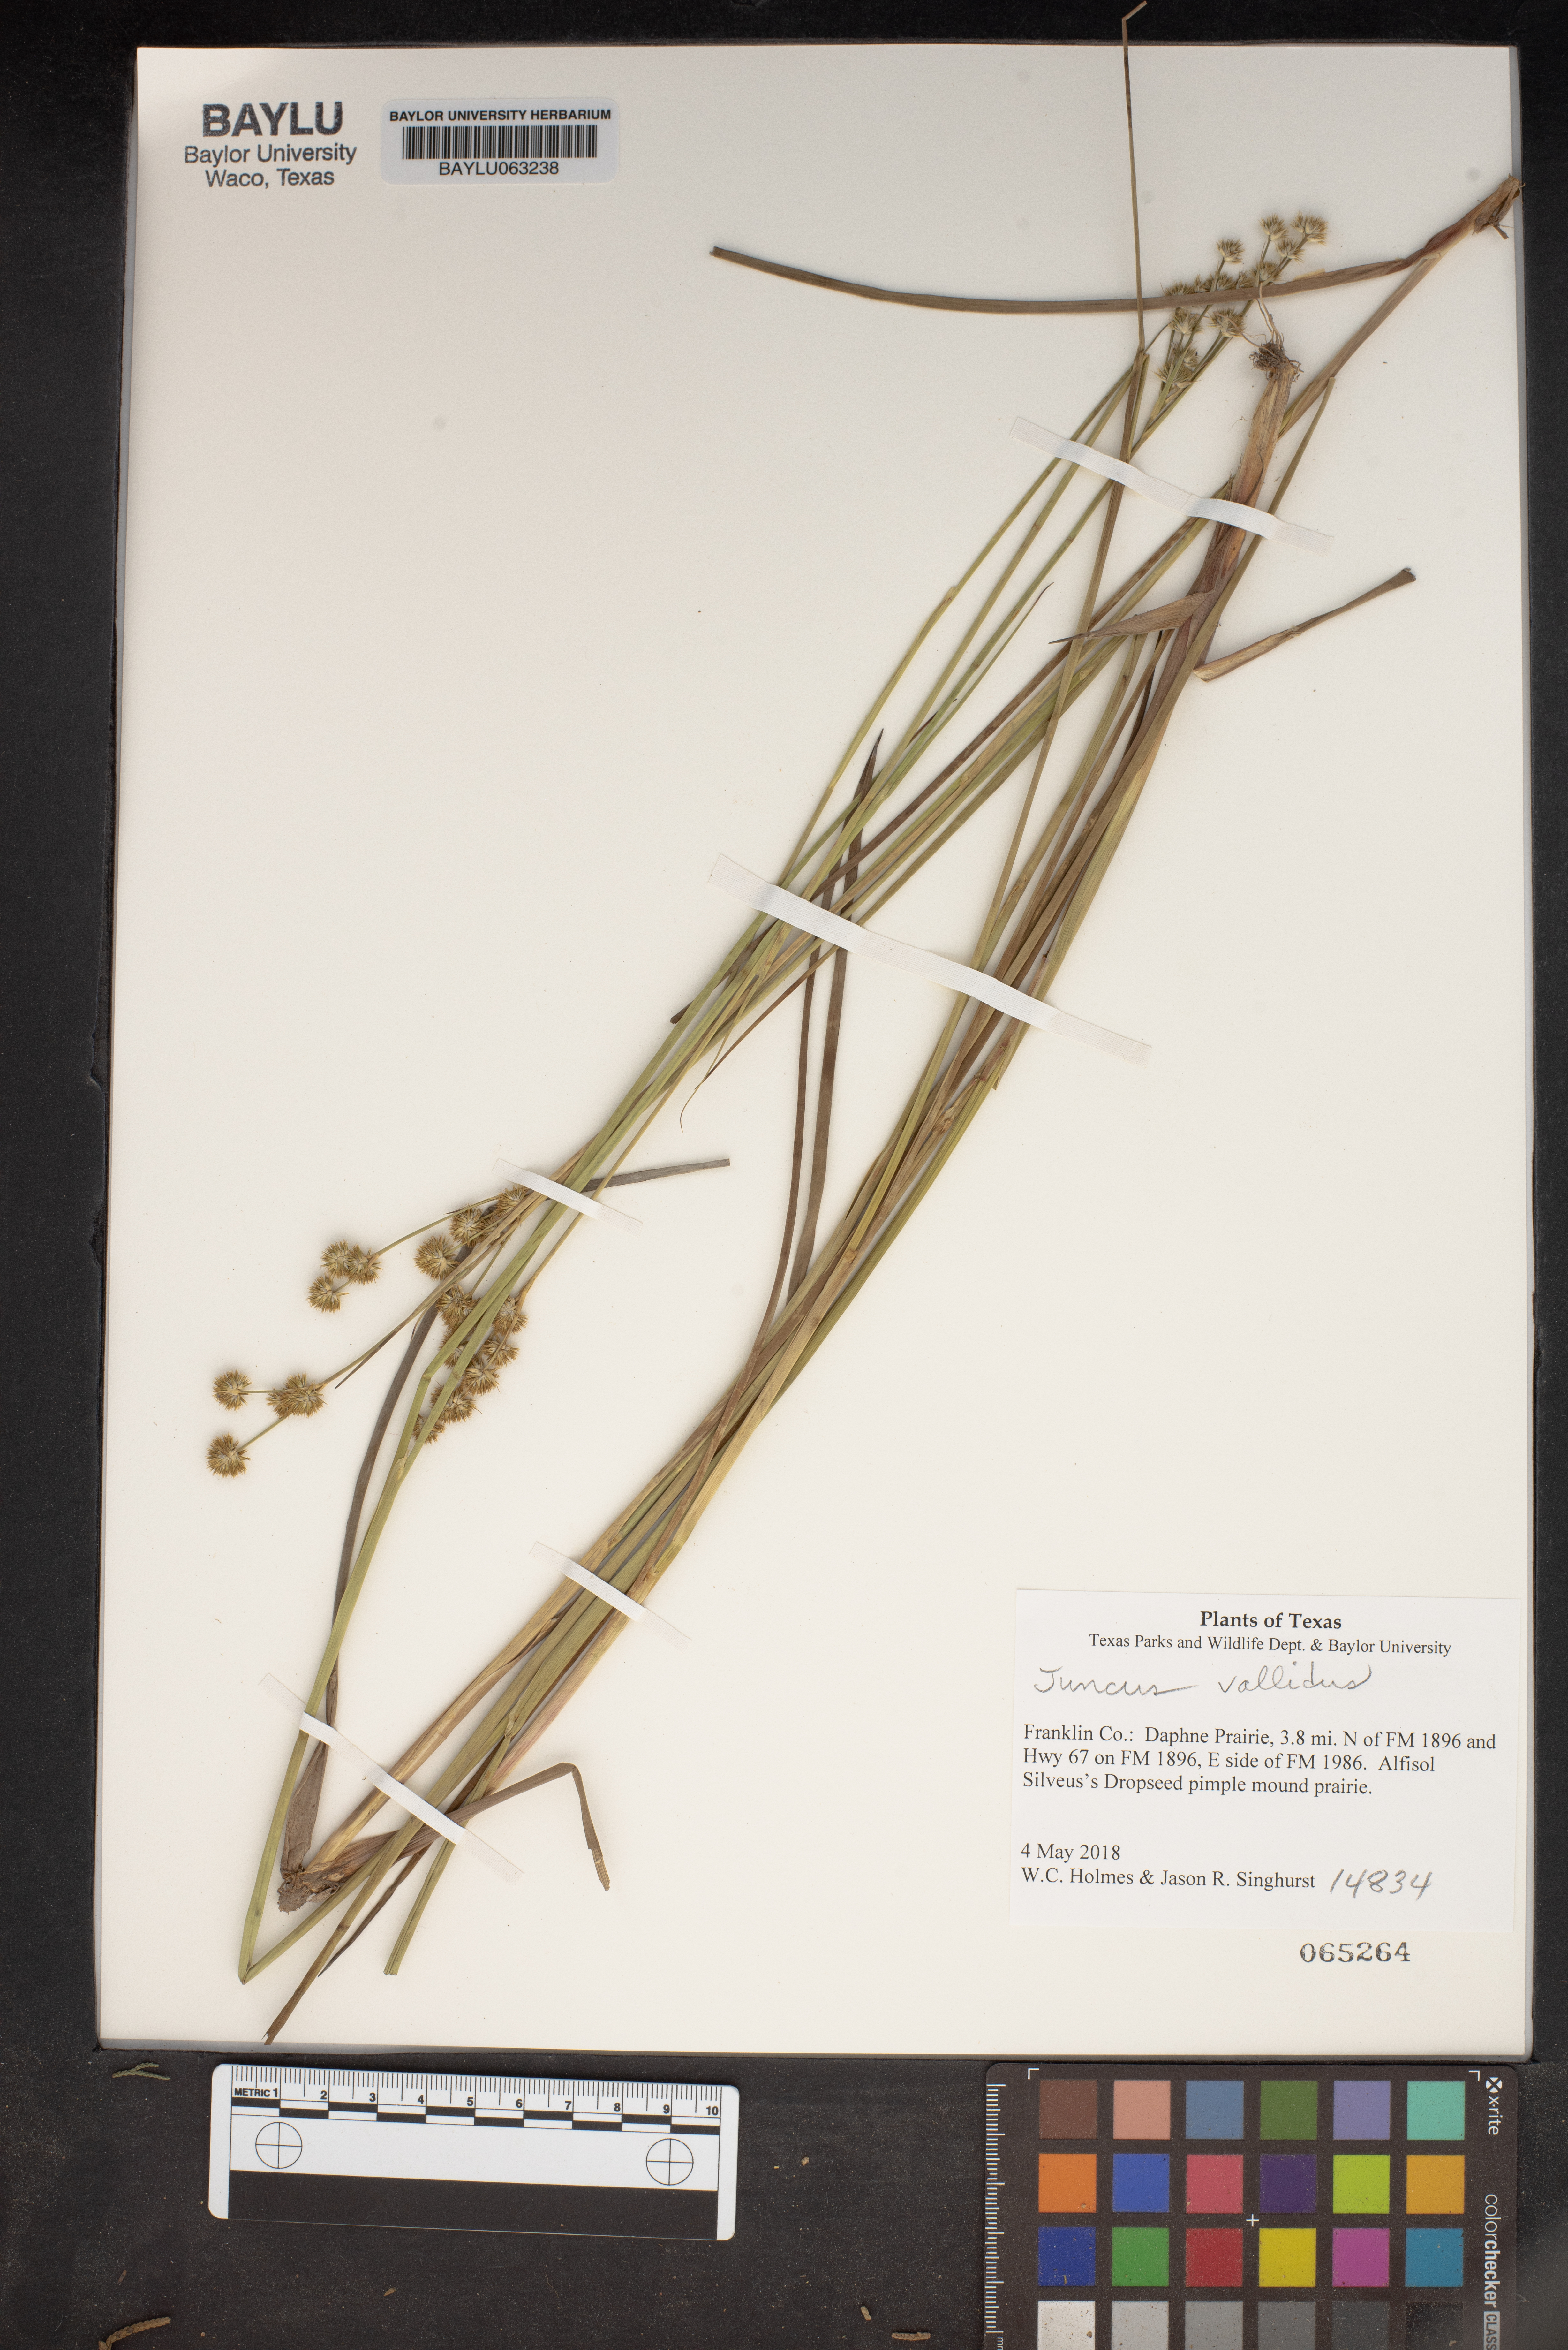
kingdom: Plantae
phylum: Tracheophyta
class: Liliopsida
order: Poales
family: Juncaceae
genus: Juncus
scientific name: Juncus validus
